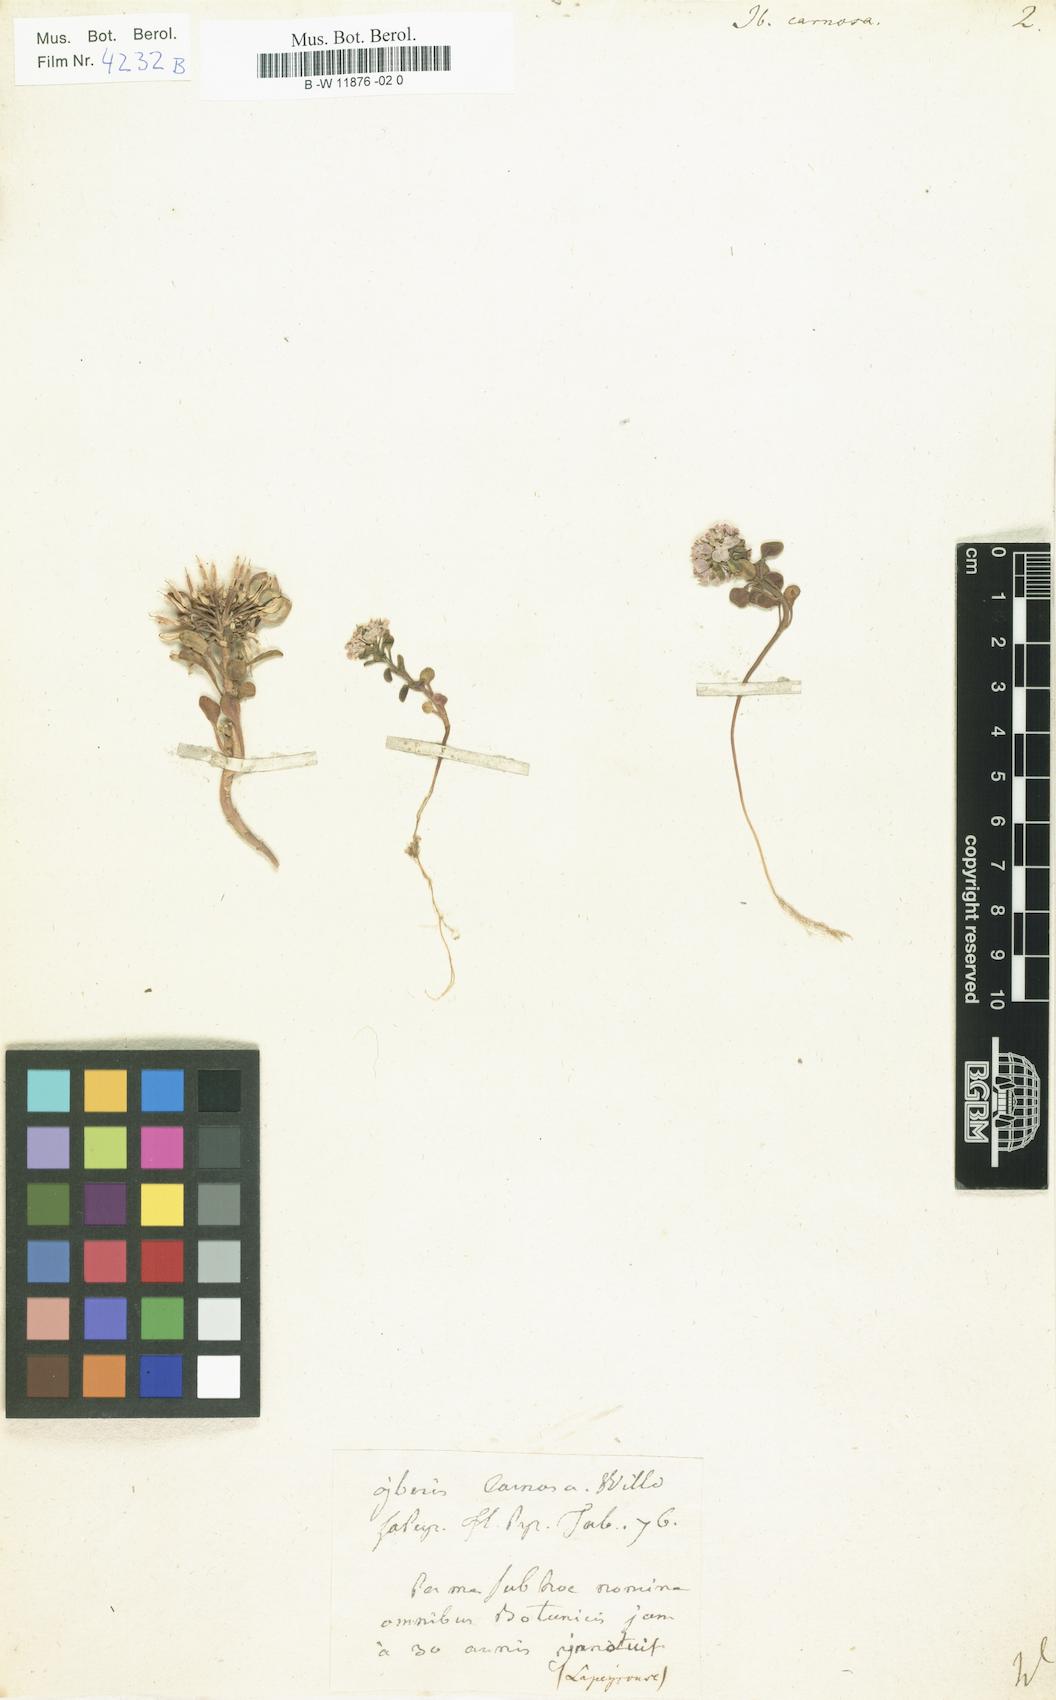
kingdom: Plantae
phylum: Tracheophyta
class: Magnoliopsida
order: Brassicales
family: Brassicaceae
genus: Iberis
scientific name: Iberis carnosa
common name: Pruit's candytuft
